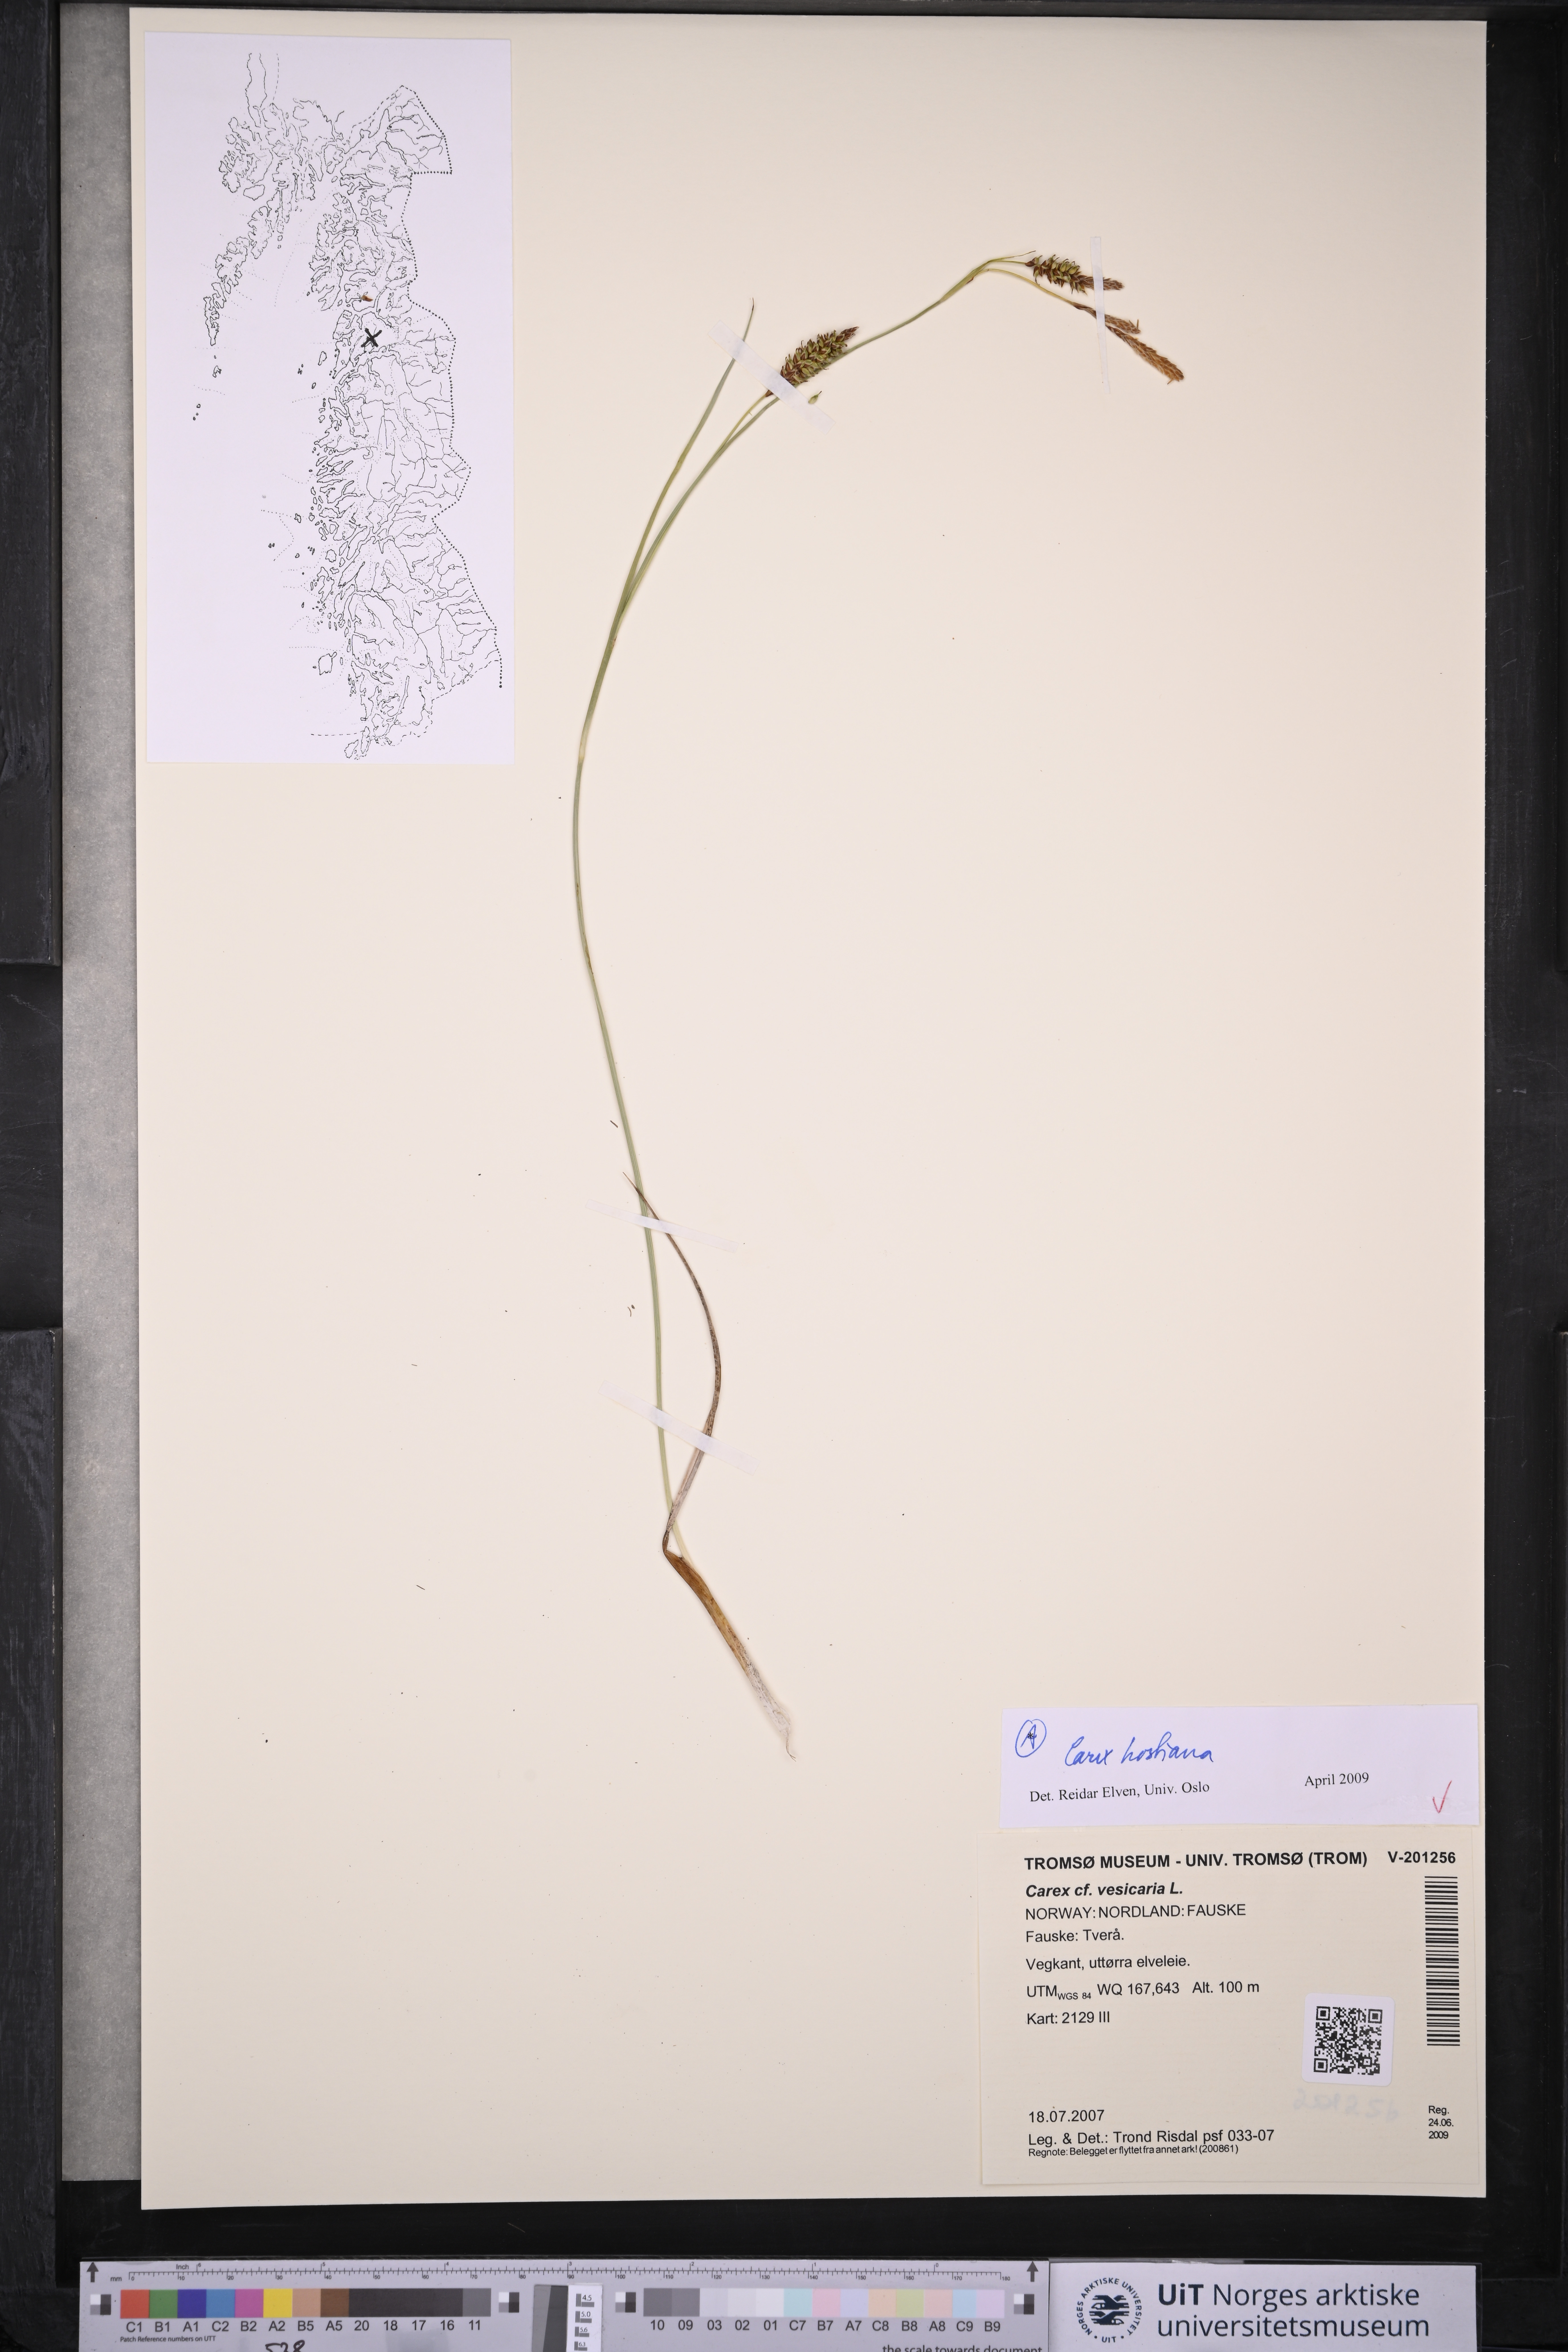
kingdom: Plantae
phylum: Tracheophyta
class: Liliopsida
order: Poales
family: Cyperaceae
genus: Carex
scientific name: Carex hostiana
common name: Tawny sedge
